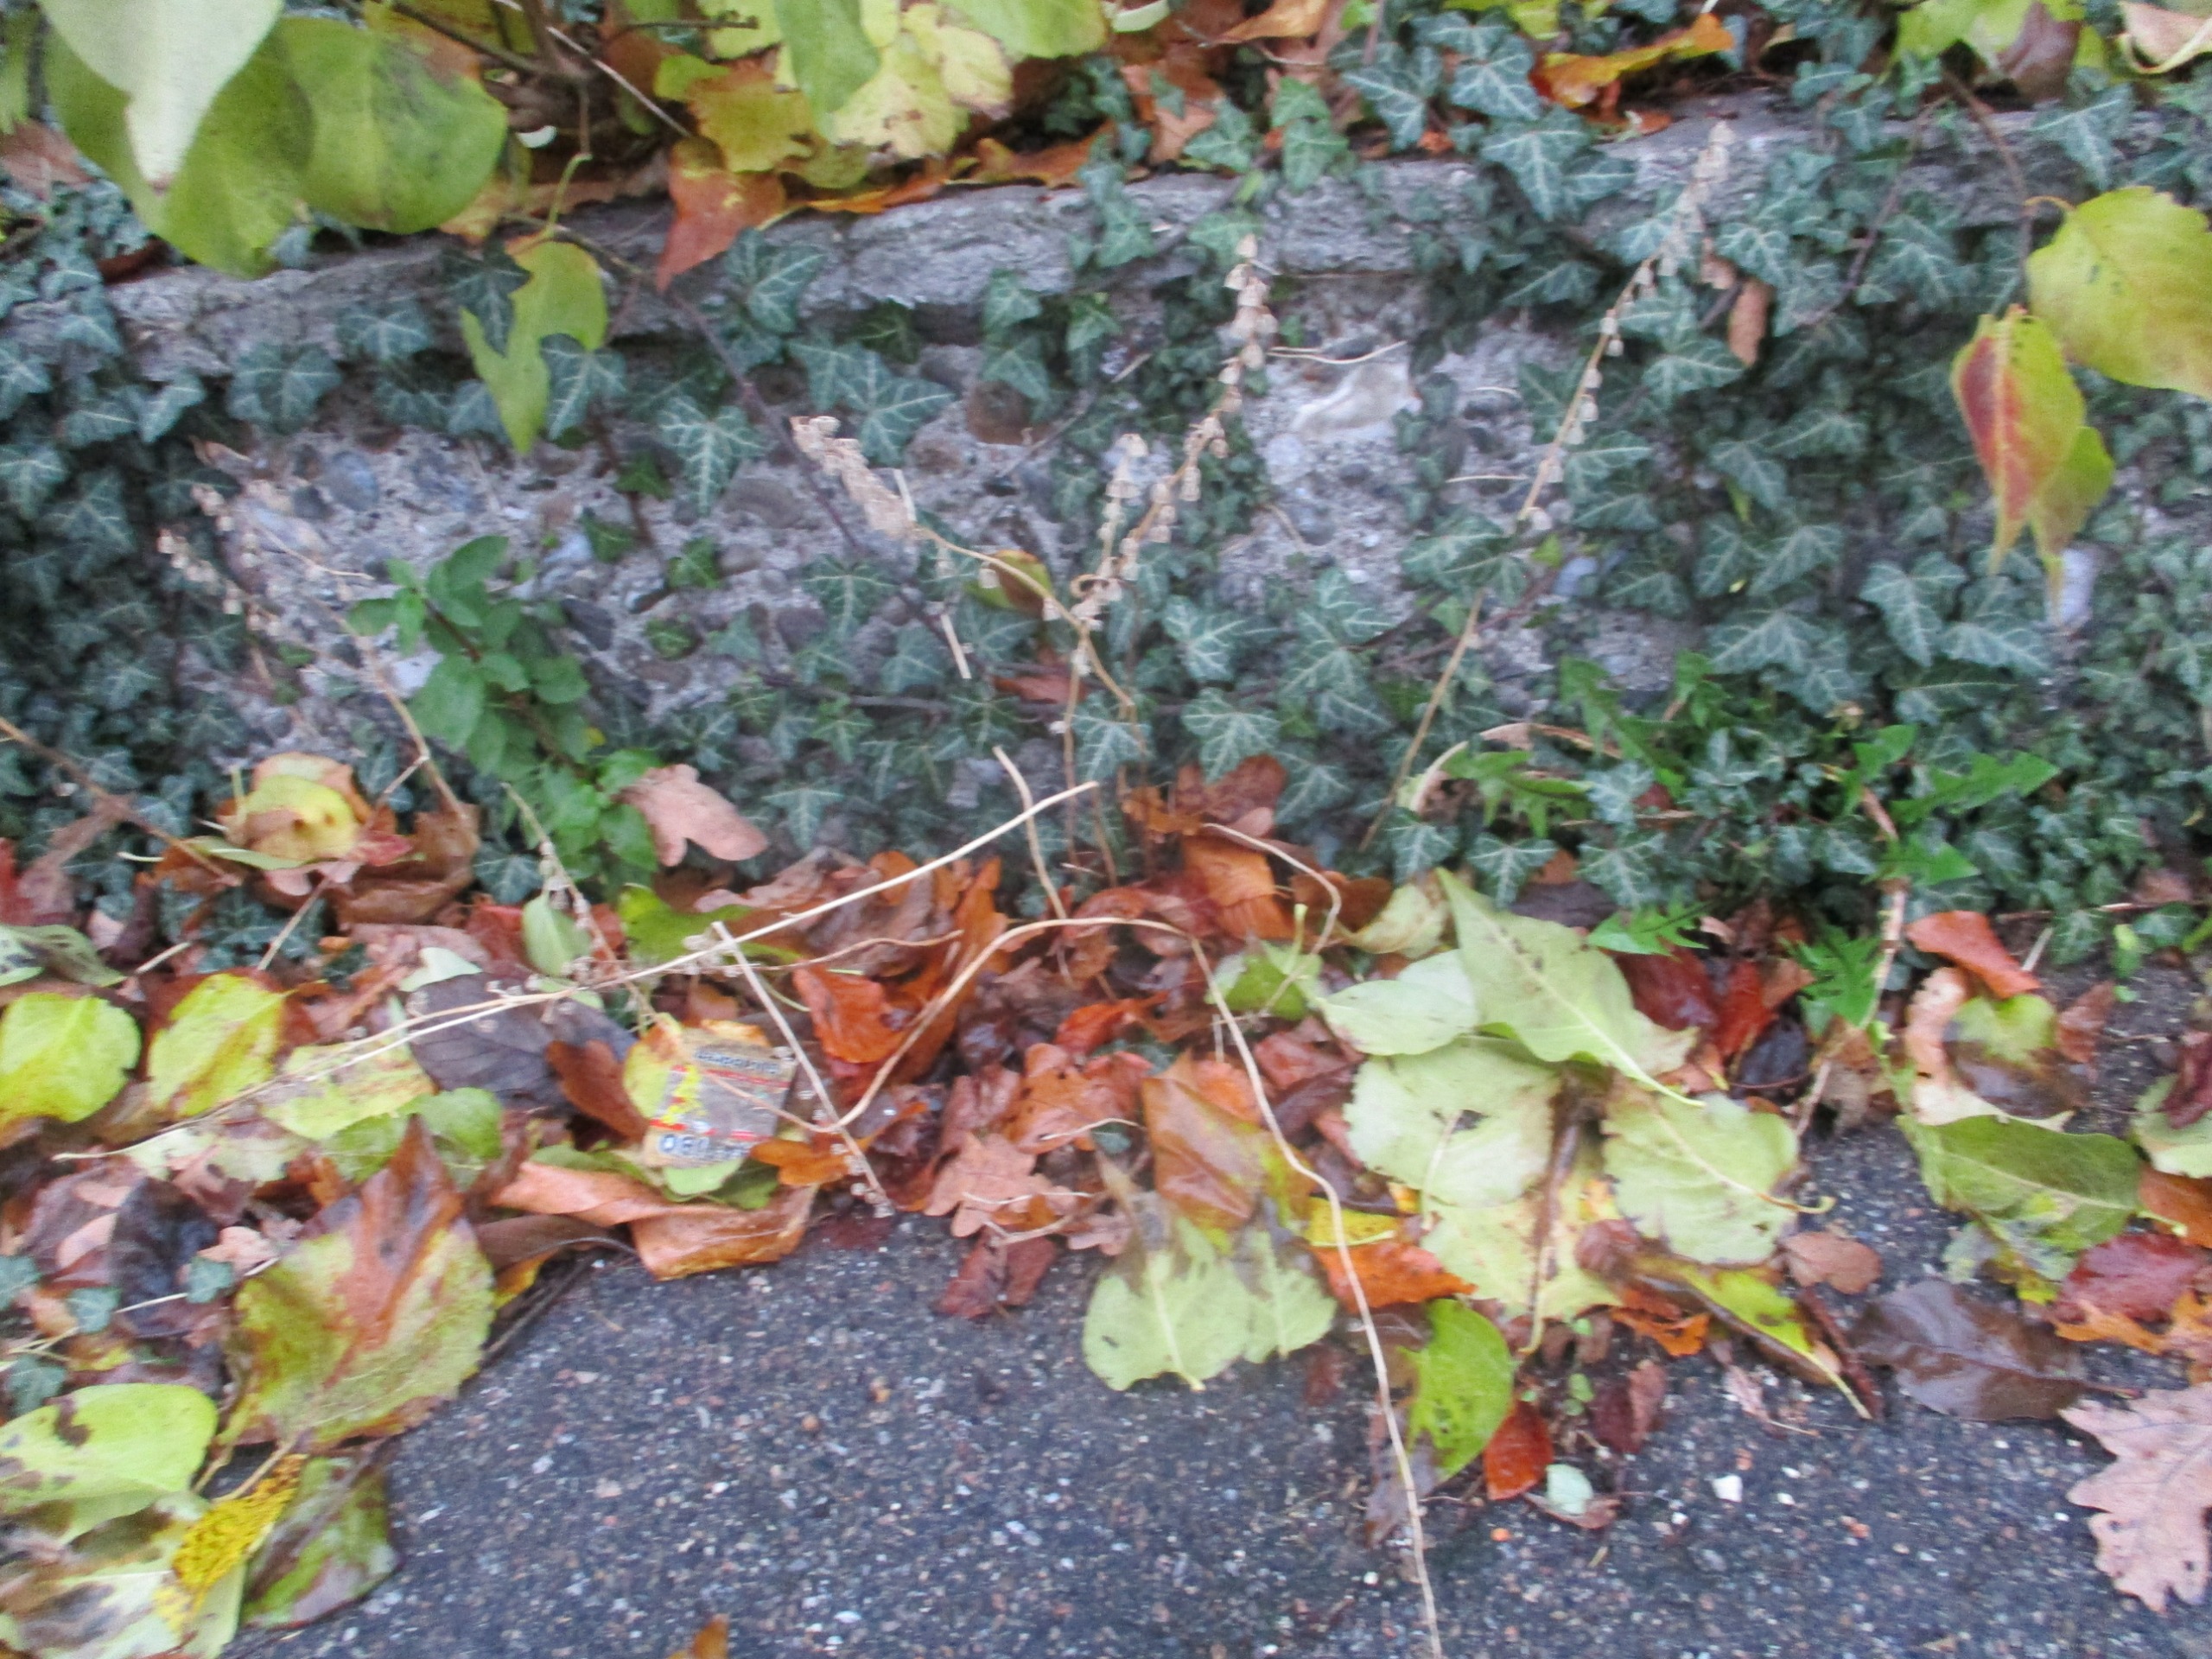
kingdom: Plantae
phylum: Tracheophyta
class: Magnoliopsida
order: Asterales
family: Campanulaceae
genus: Campanula
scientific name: Campanula rapunculoides
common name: Ensidig klokke
